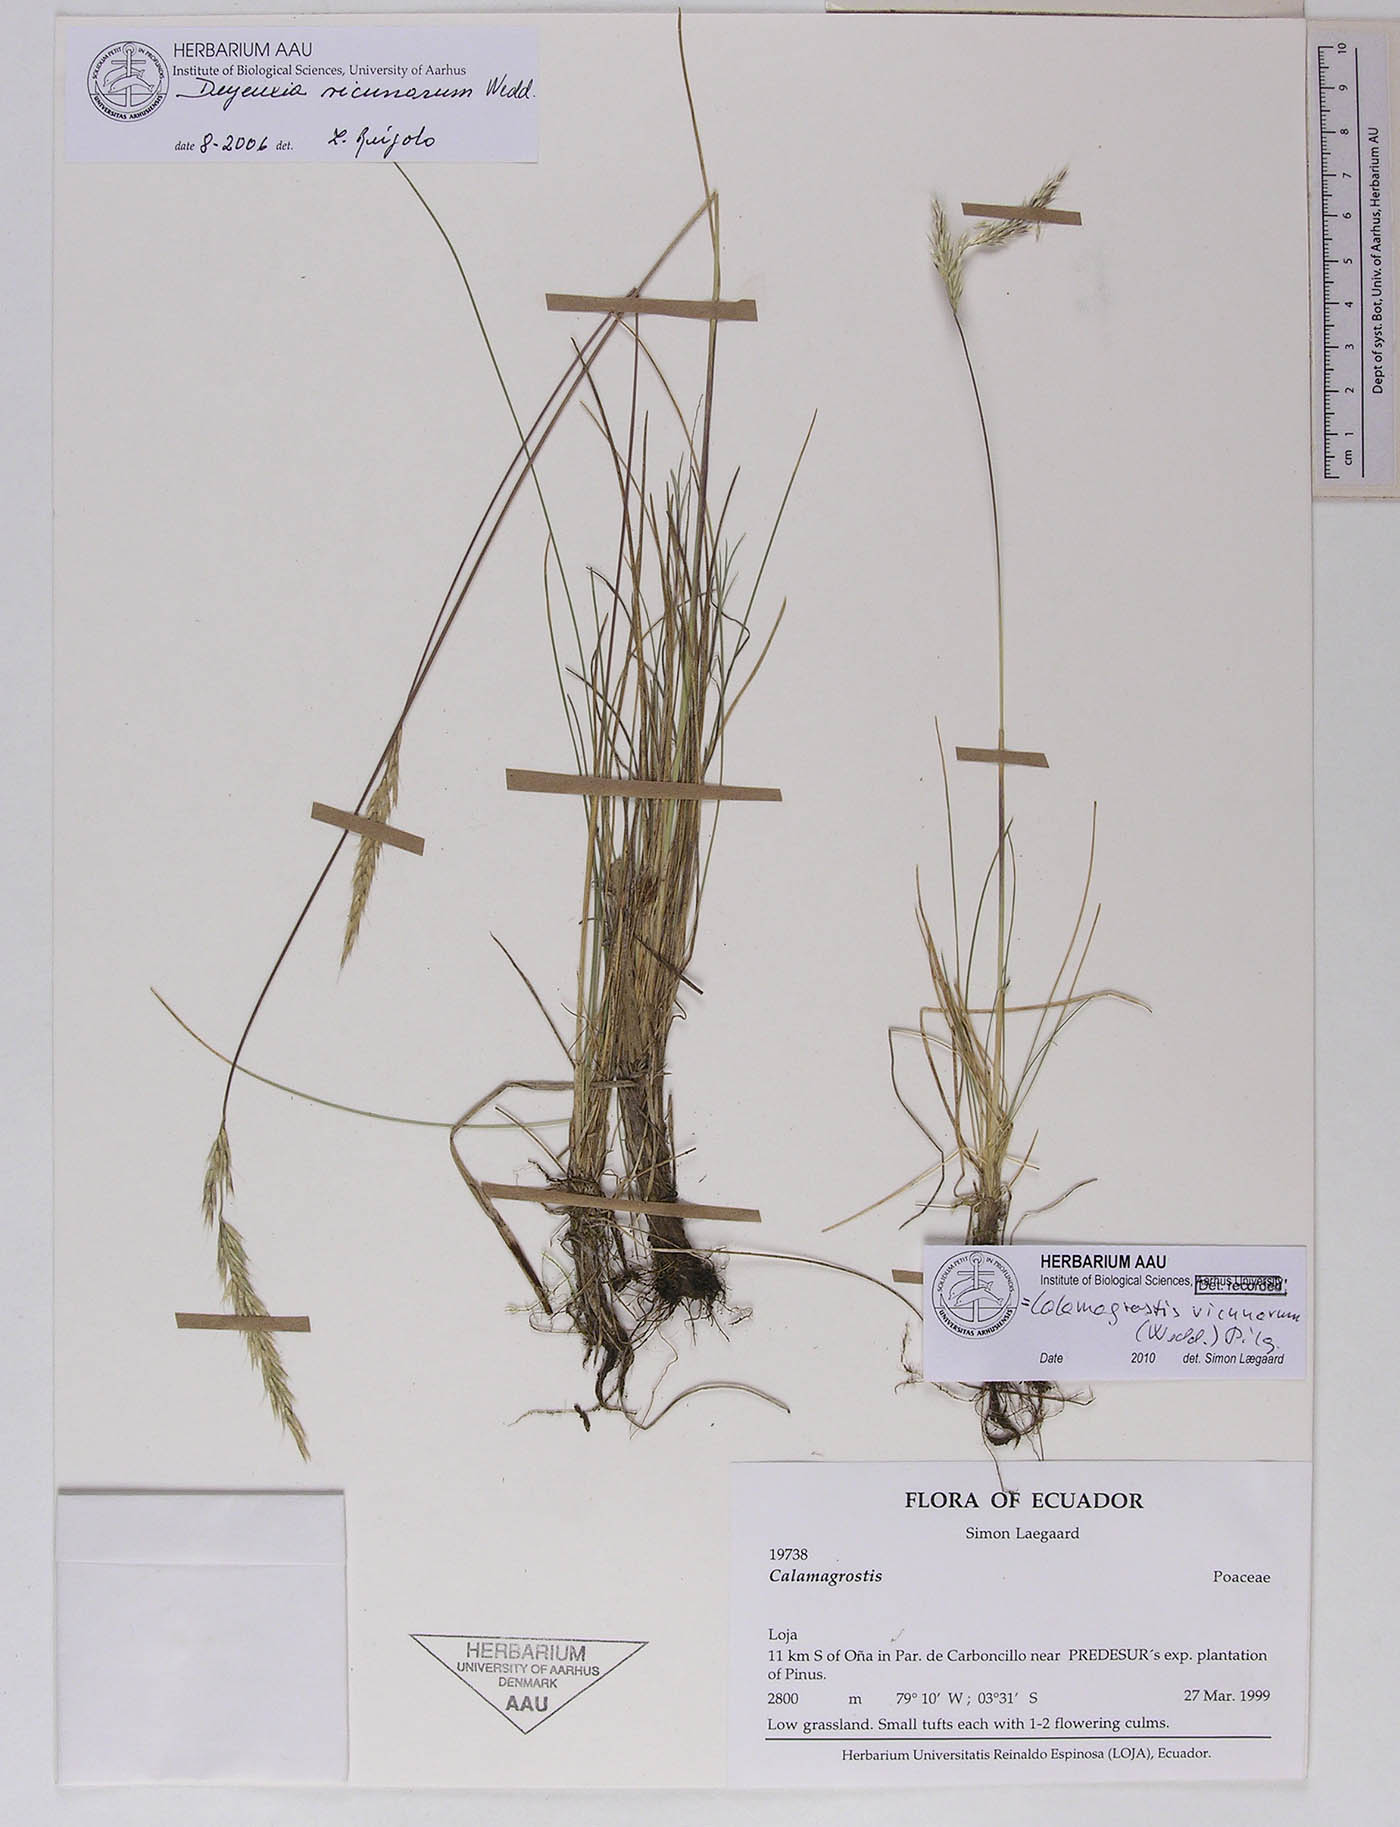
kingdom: Plantae
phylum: Tracheophyta
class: Liliopsida
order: Poales
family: Poaceae
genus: Calamagrostis
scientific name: Calamagrostis
